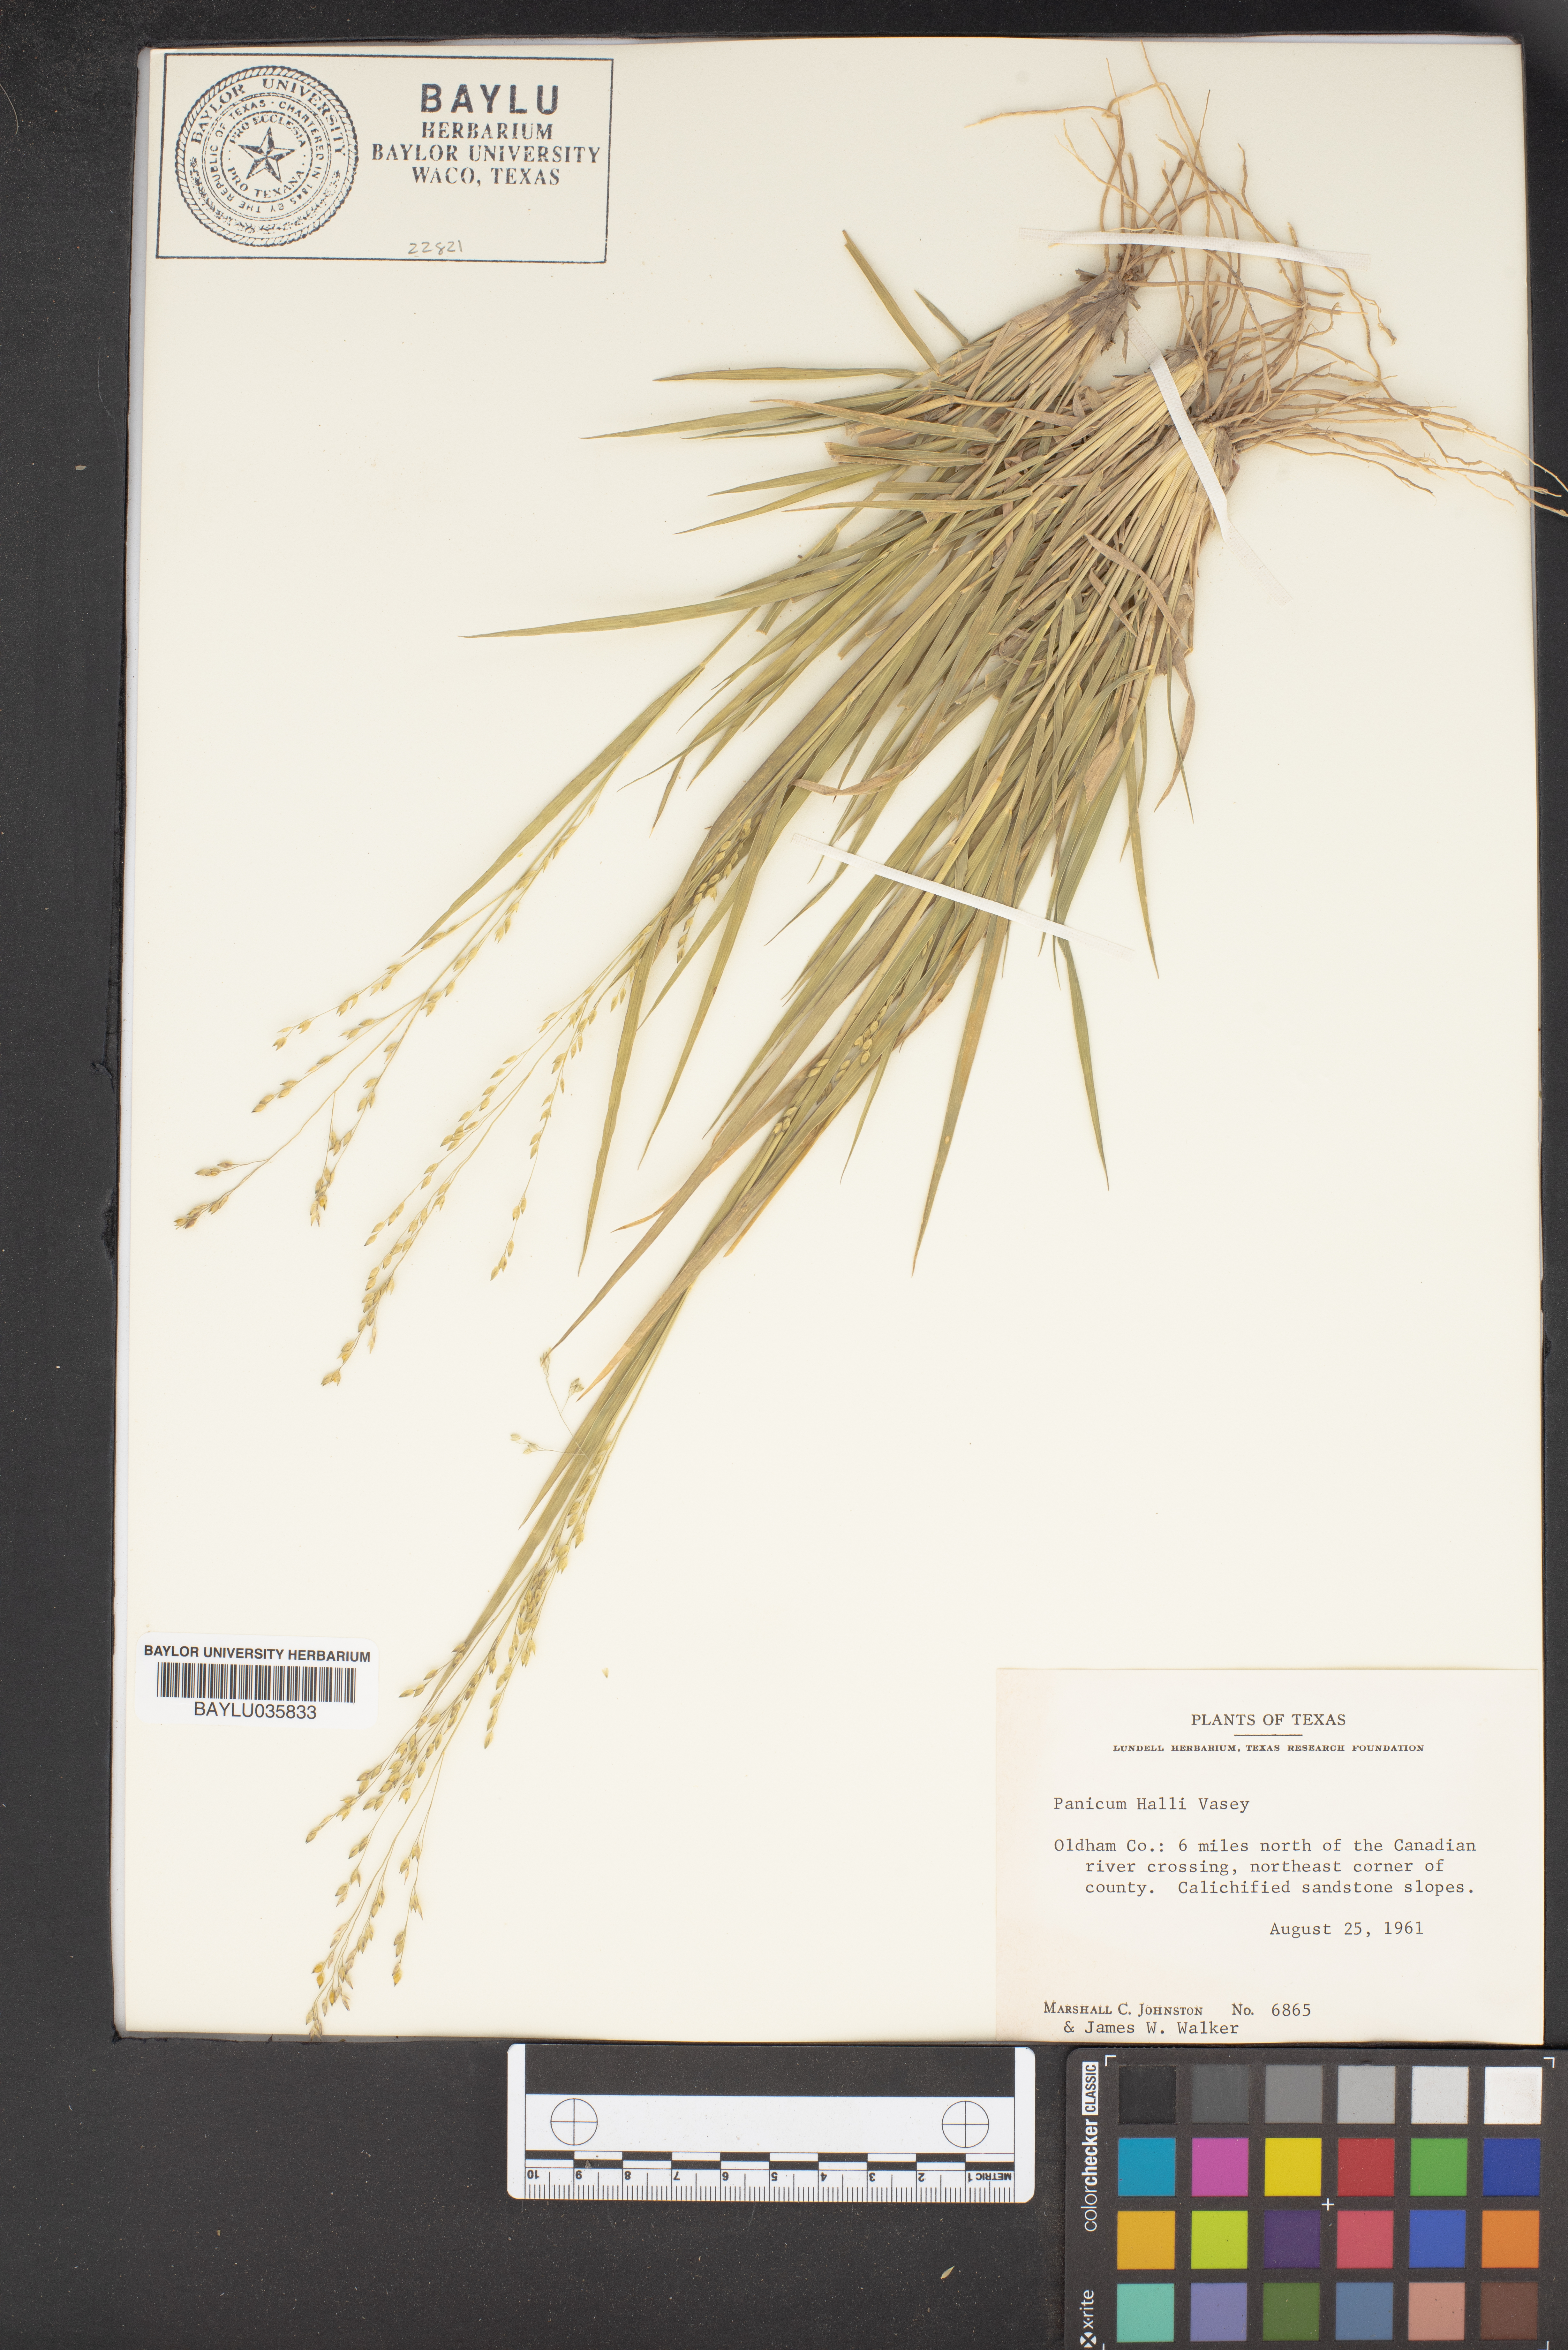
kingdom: Plantae
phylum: Tracheophyta
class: Liliopsida
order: Poales
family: Poaceae
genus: Panicum
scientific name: Panicum hallii
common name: Hall's witchgrass
